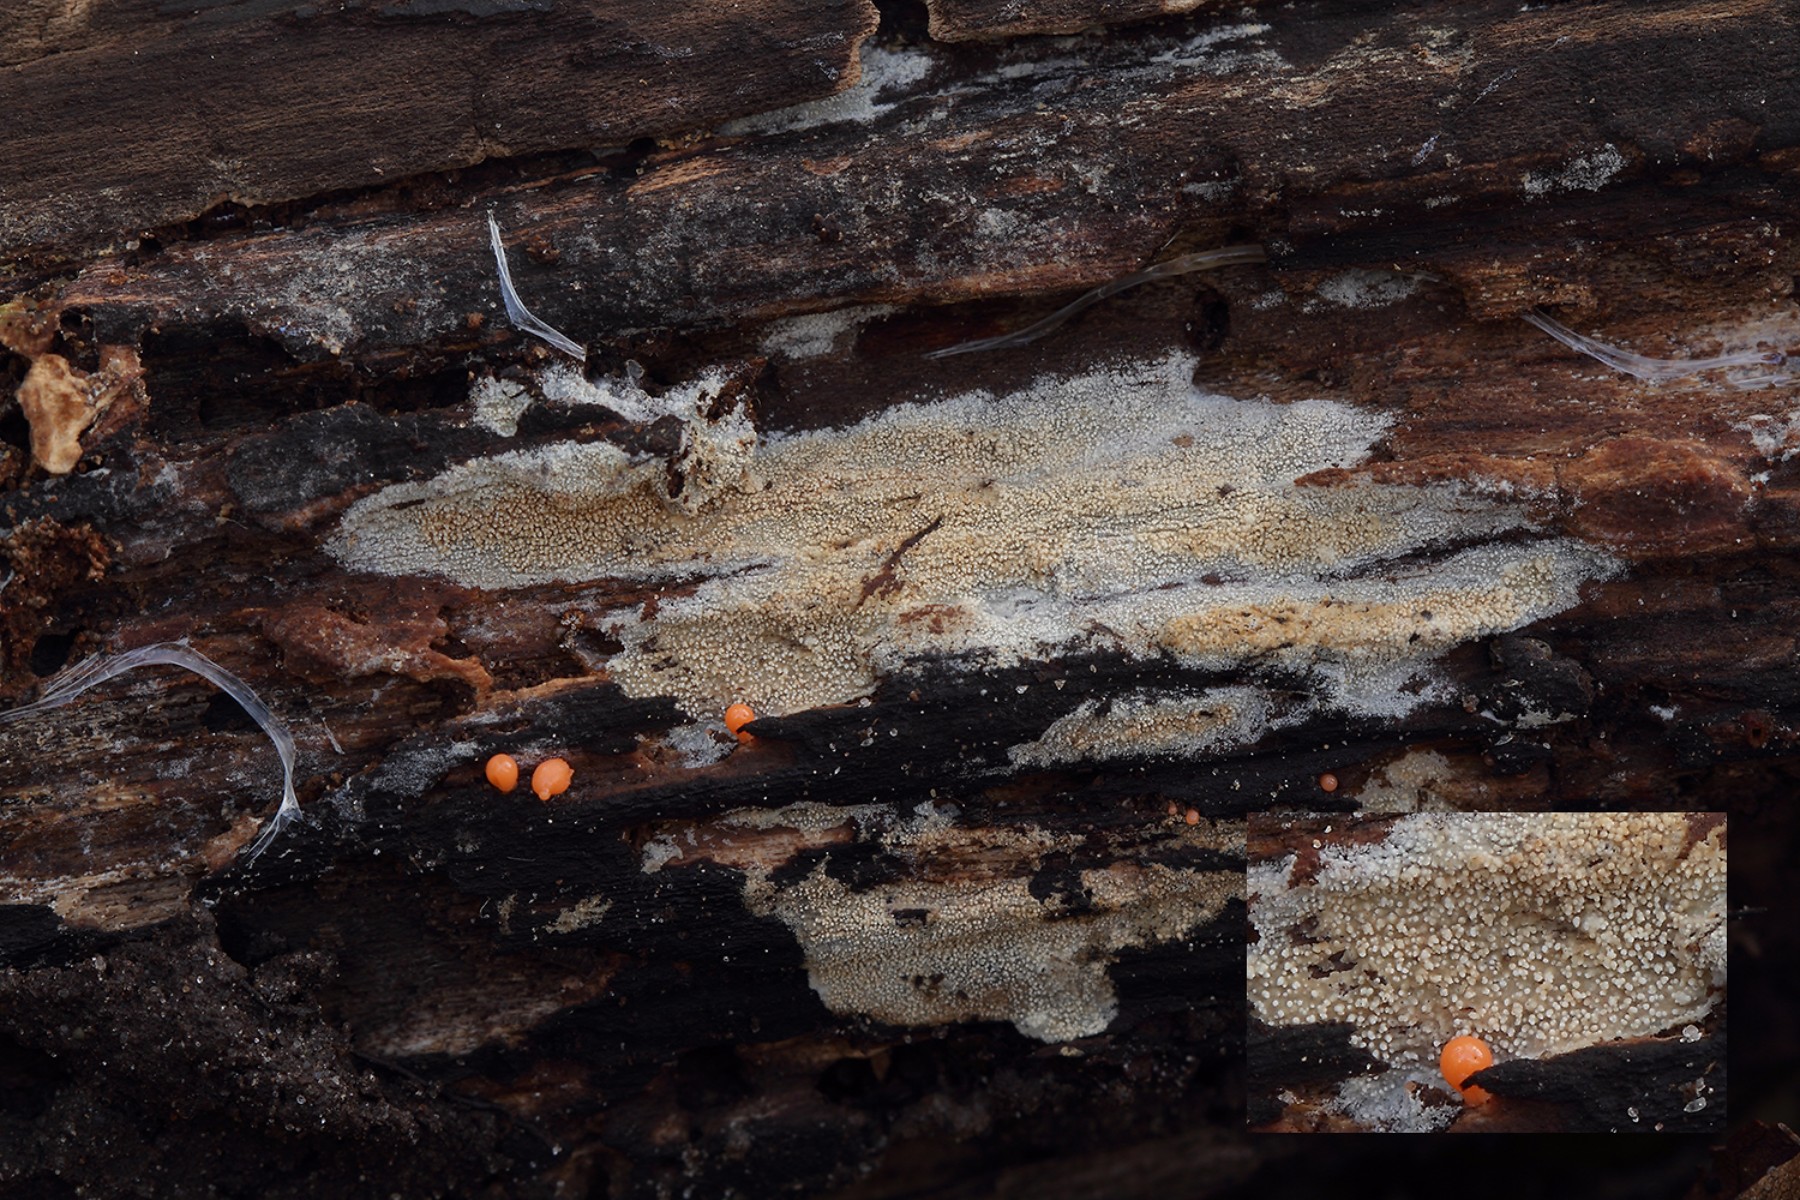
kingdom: Fungi
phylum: Basidiomycota
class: Agaricomycetes
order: Trechisporales
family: Hydnodontaceae
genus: Brevicellicium
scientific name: Brevicellicium olivascens
